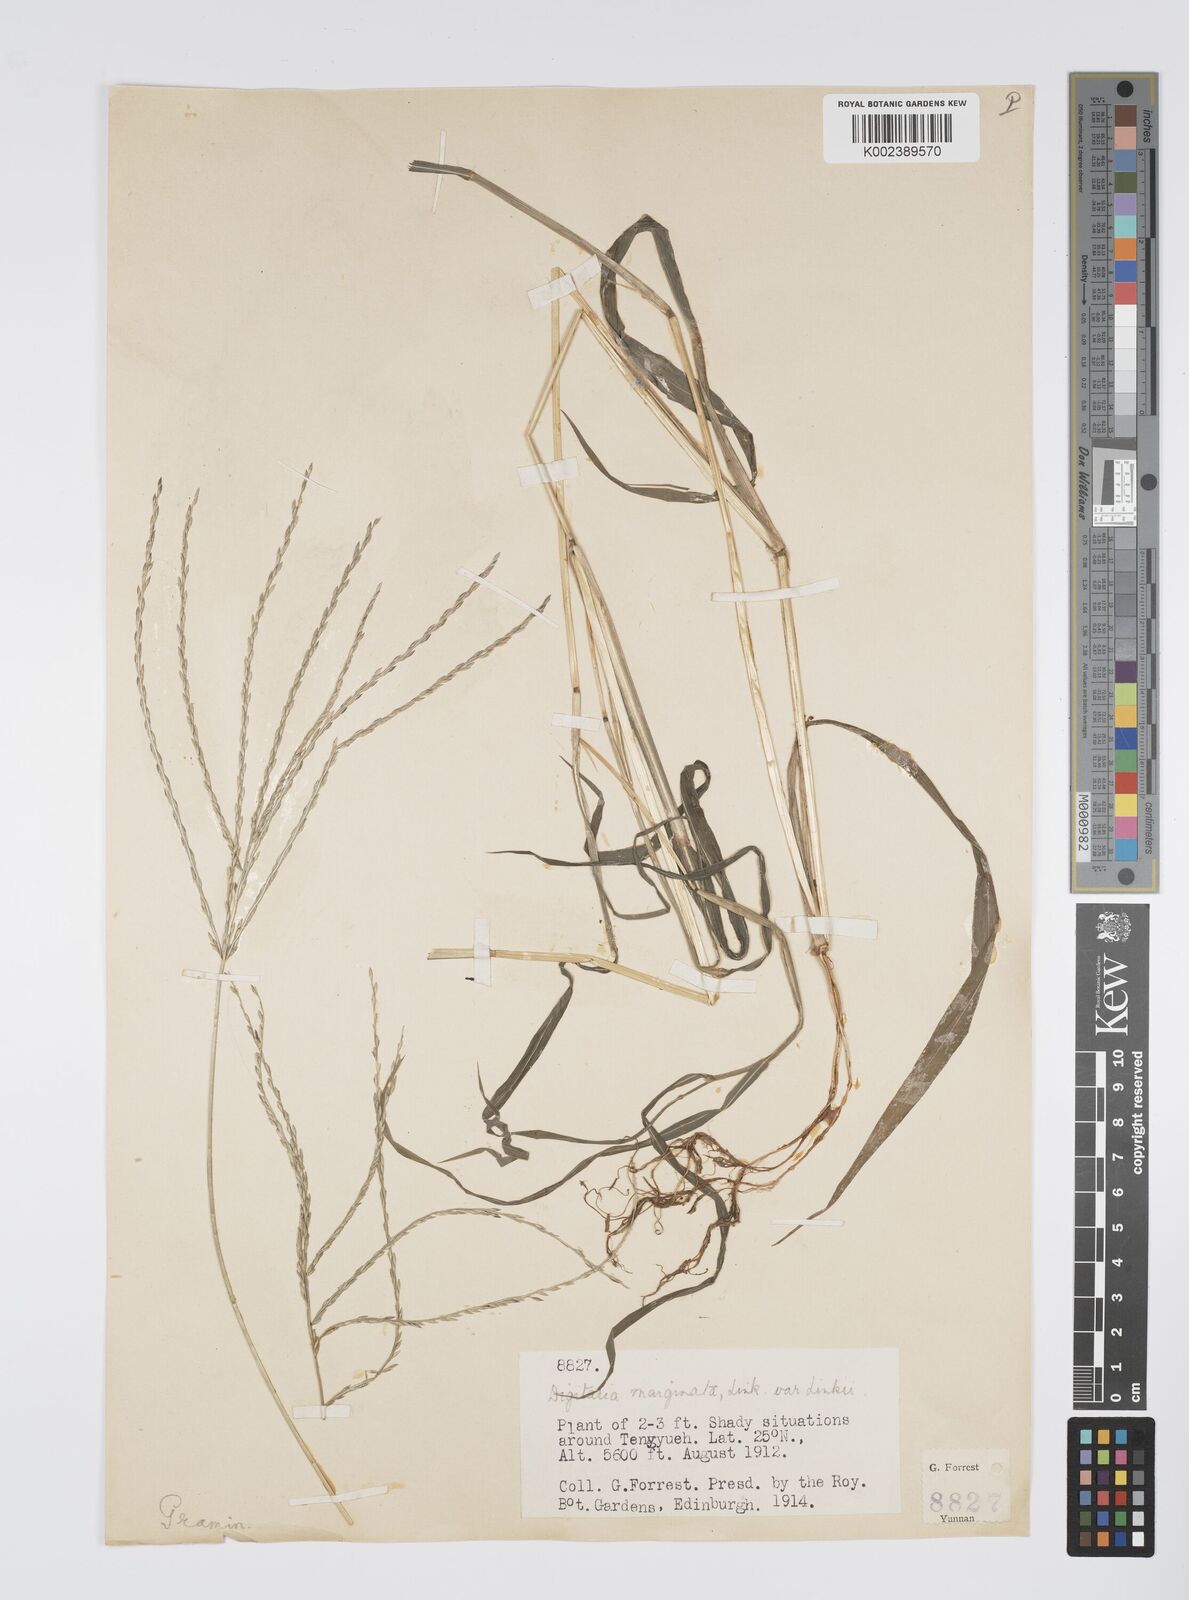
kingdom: Plantae
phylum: Tracheophyta
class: Liliopsida
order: Poales
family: Poaceae
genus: Digitaria
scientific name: Digitaria ciliaris
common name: Tropical finger-grass
